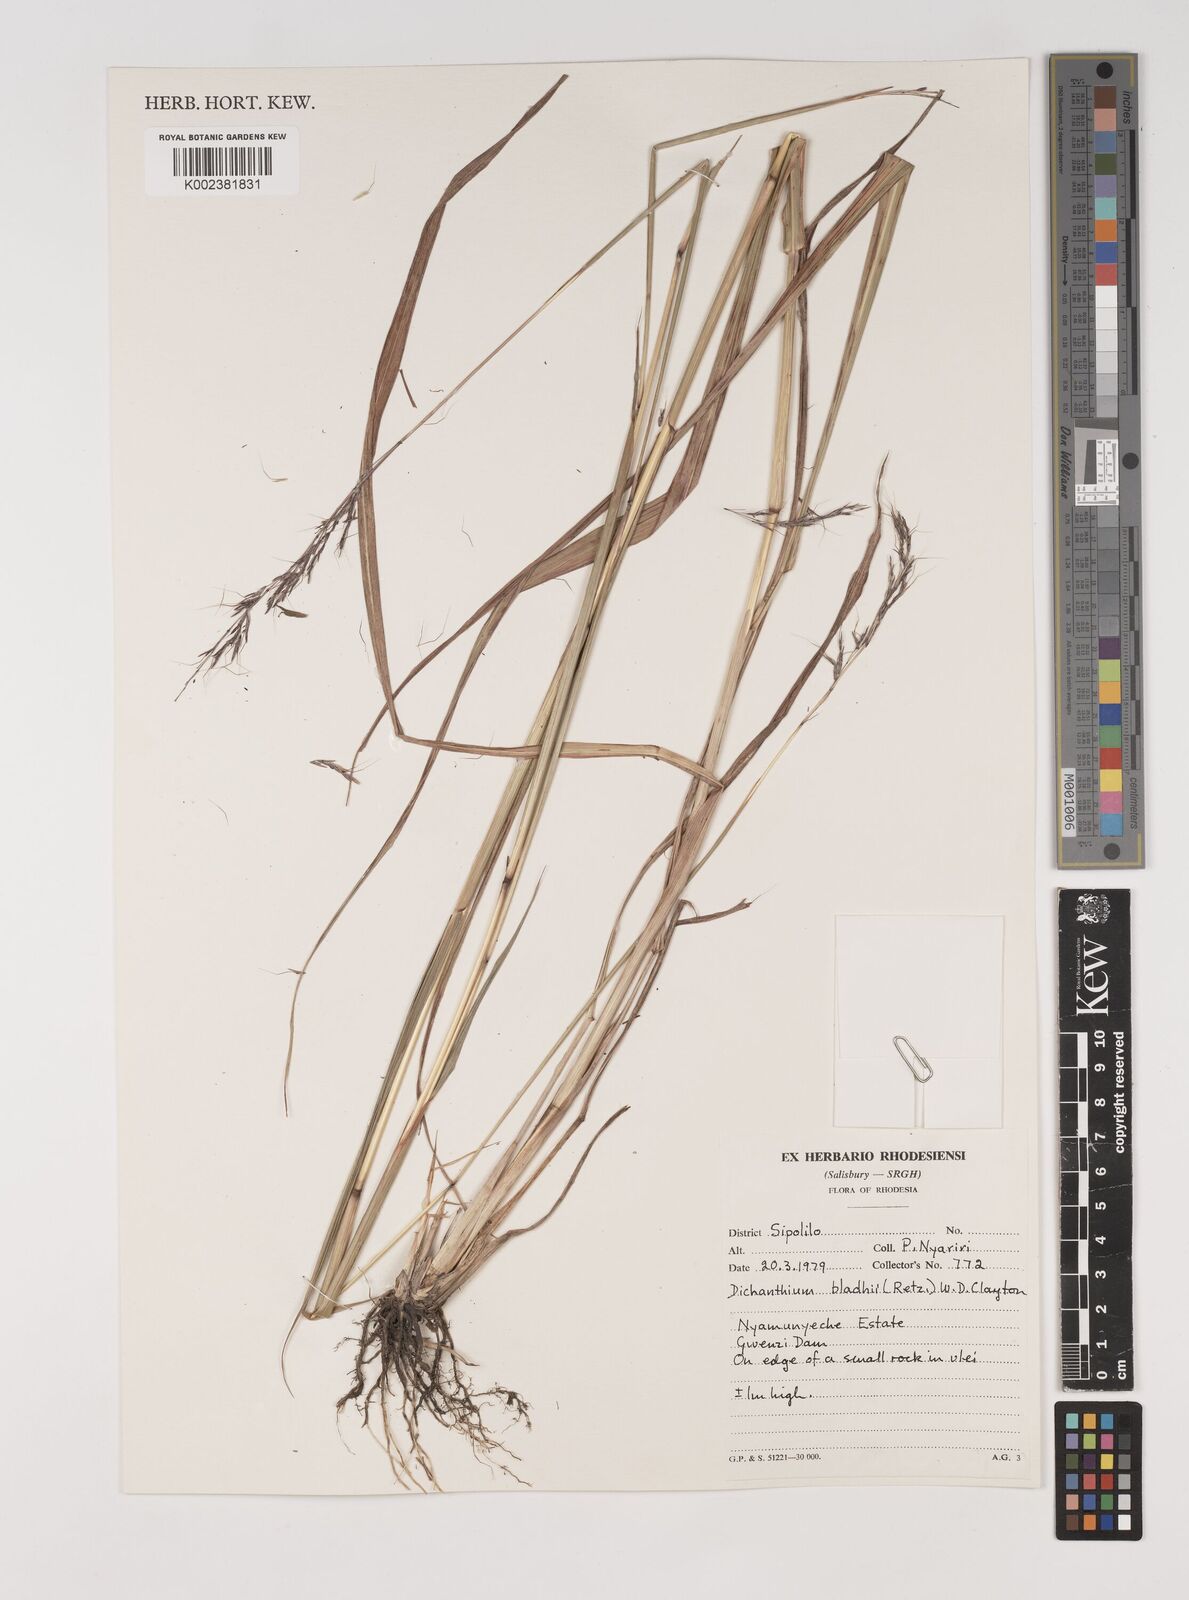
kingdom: Plantae
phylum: Tracheophyta
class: Liliopsida
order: Poales
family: Poaceae
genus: Bothriochloa
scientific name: Bothriochloa bladhii
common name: Caucasian bluestem
